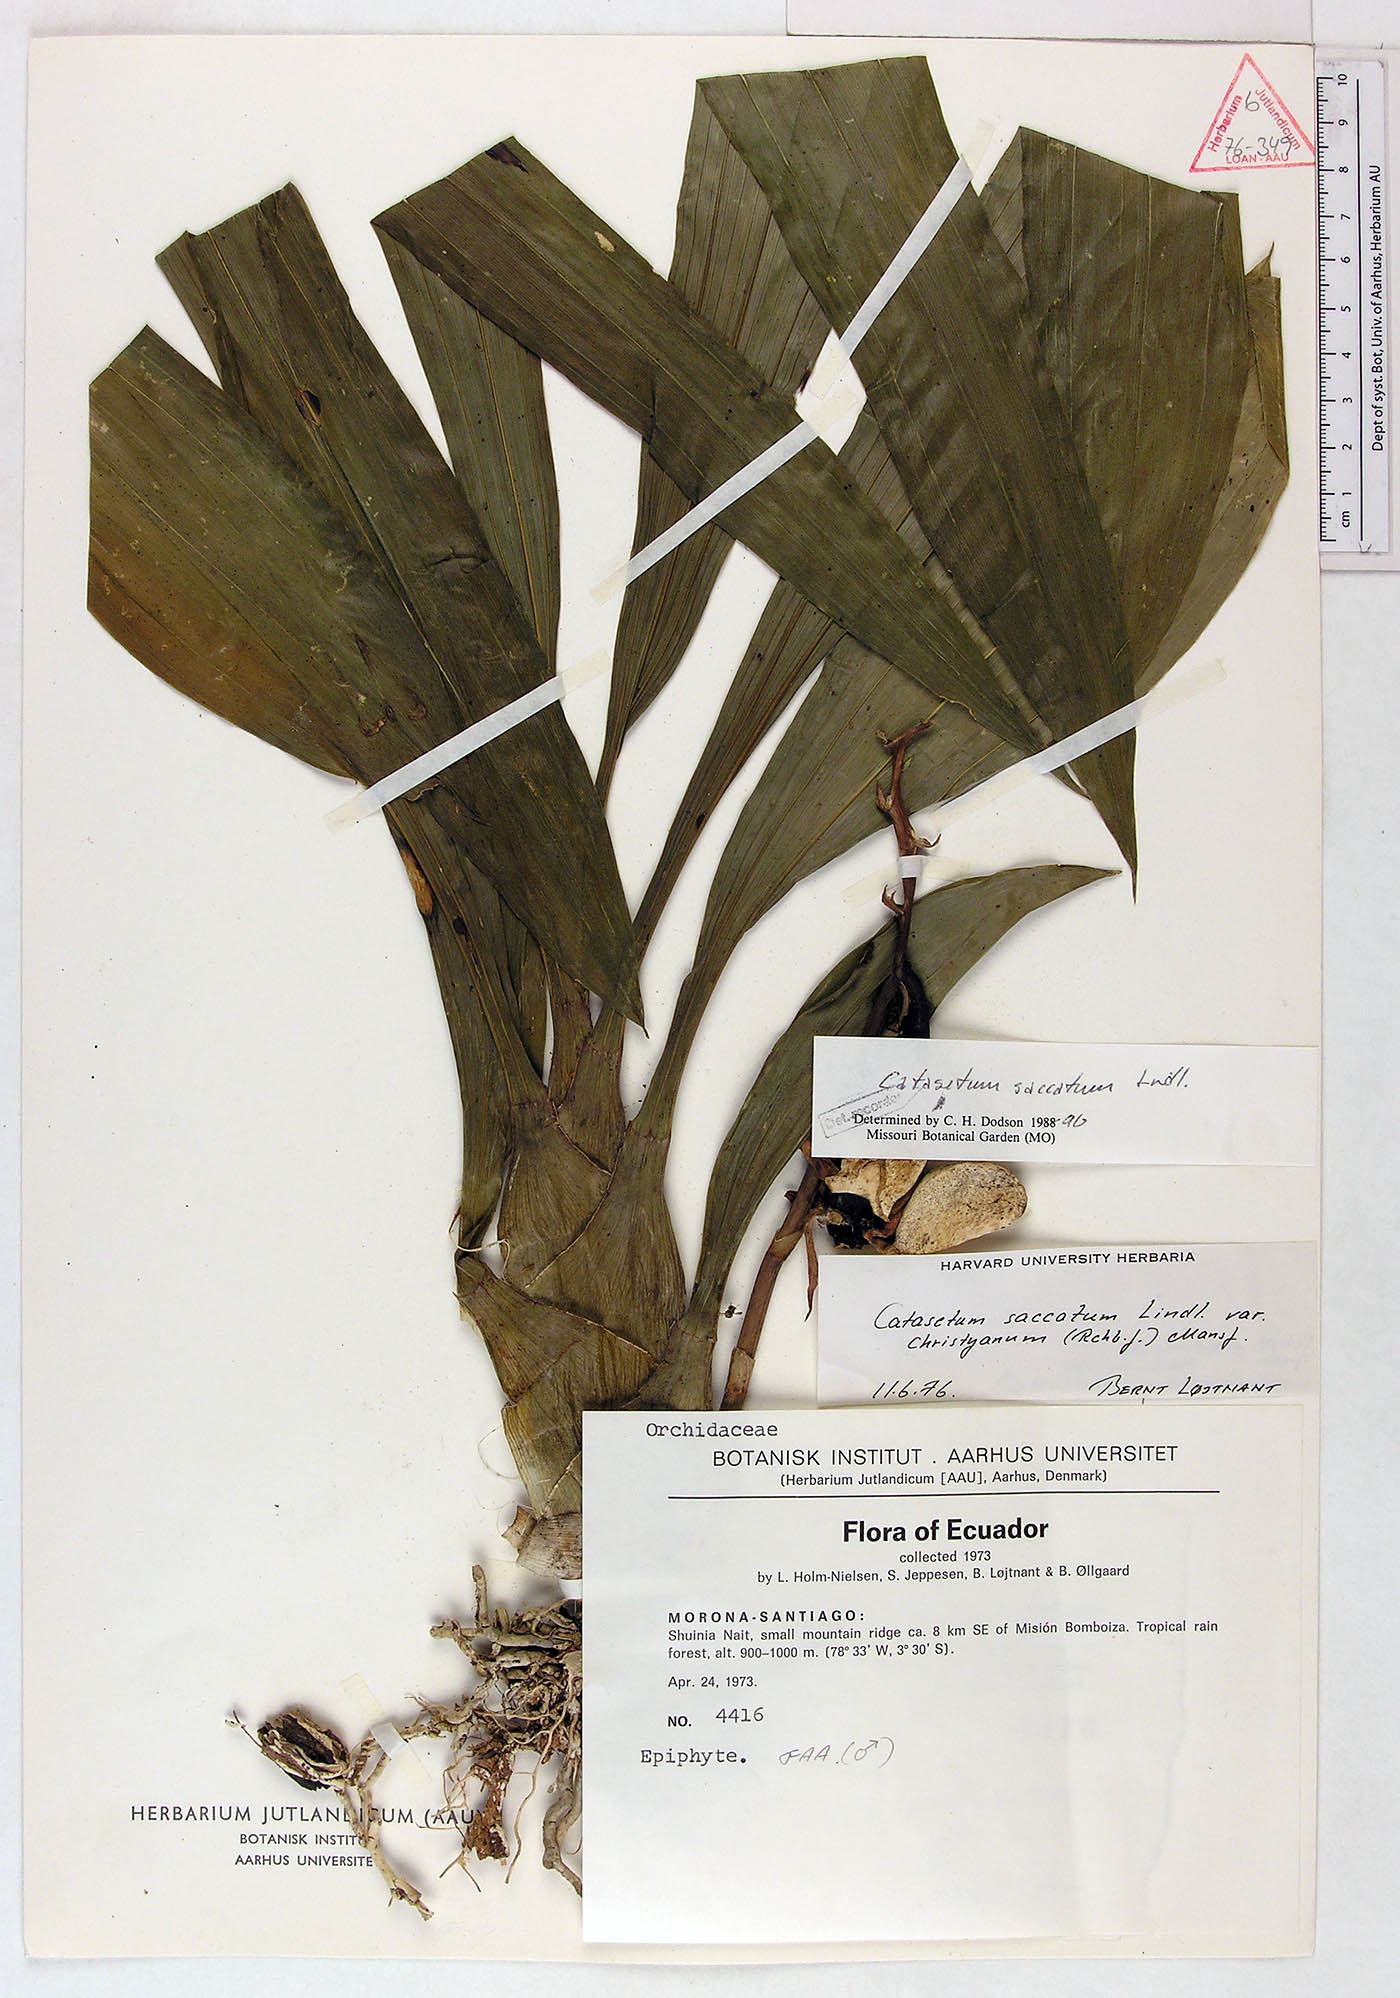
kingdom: Plantae
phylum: Tracheophyta
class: Liliopsida
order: Asparagales
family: Orchidaceae
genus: Catasetum
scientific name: Catasetum saccatum
